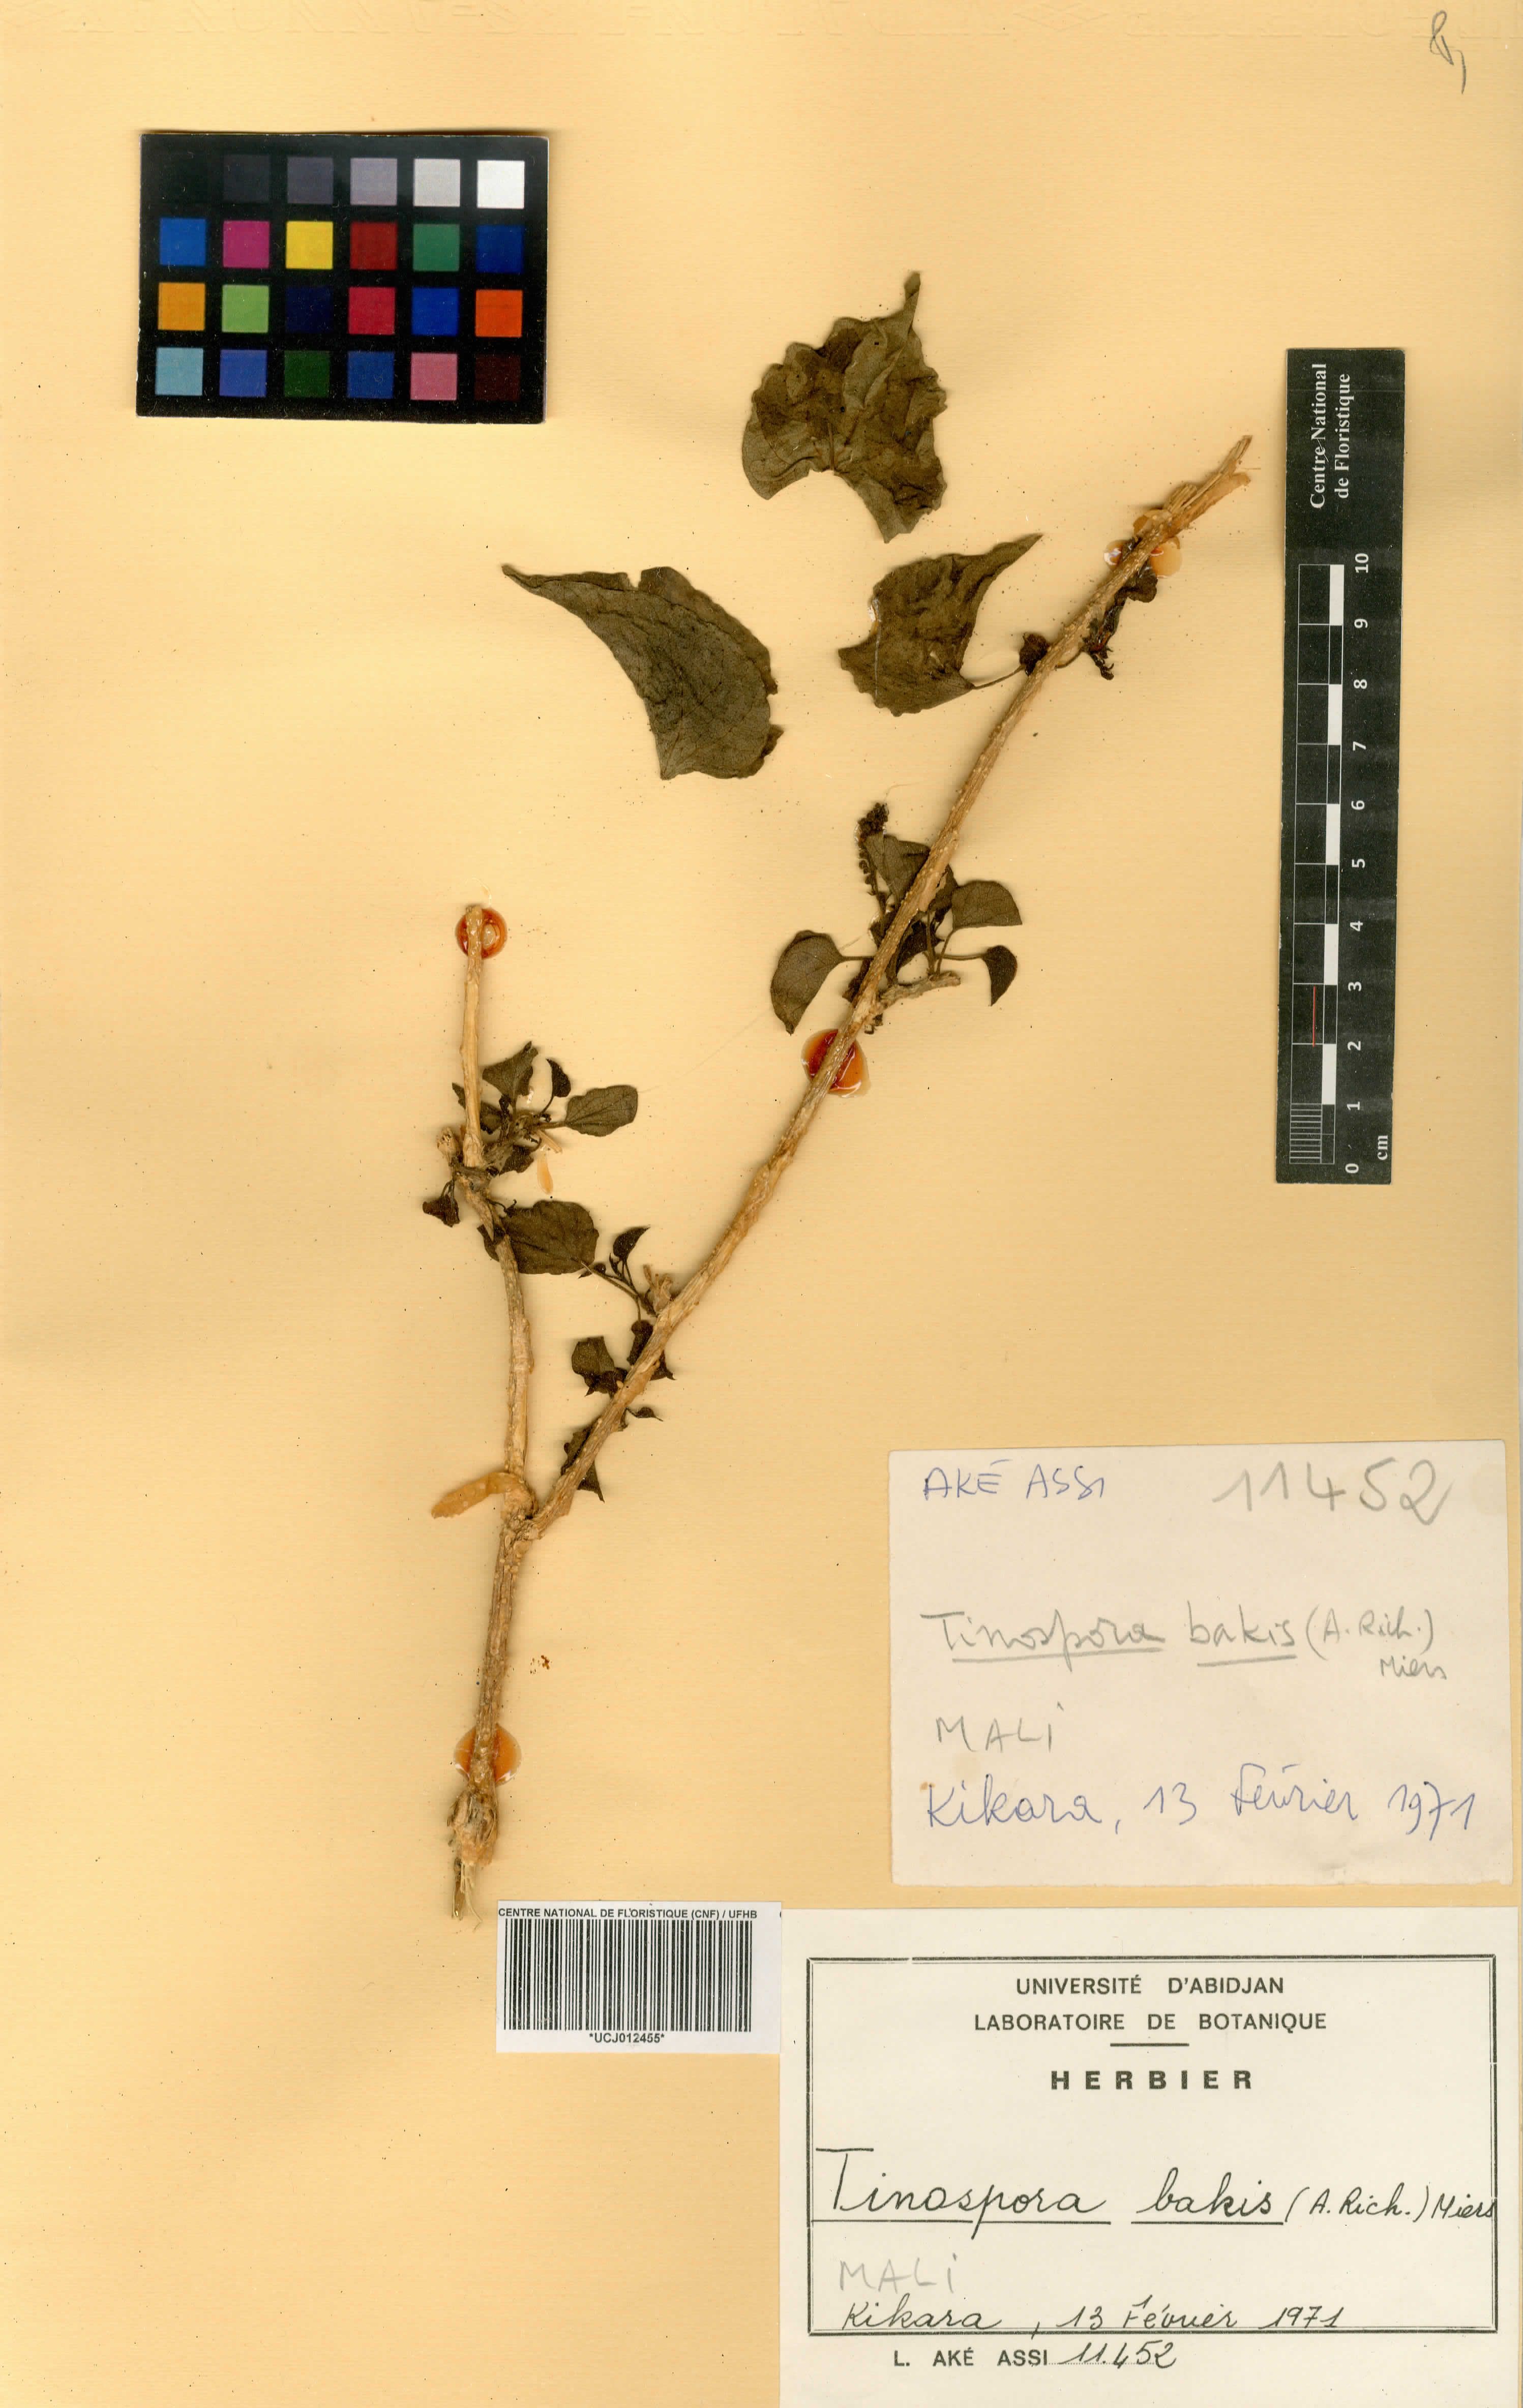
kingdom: Plantae
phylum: Tracheophyta
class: Magnoliopsida
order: Ranunculales
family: Menispermaceae
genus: Tinospora
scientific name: Tinospora bakis
